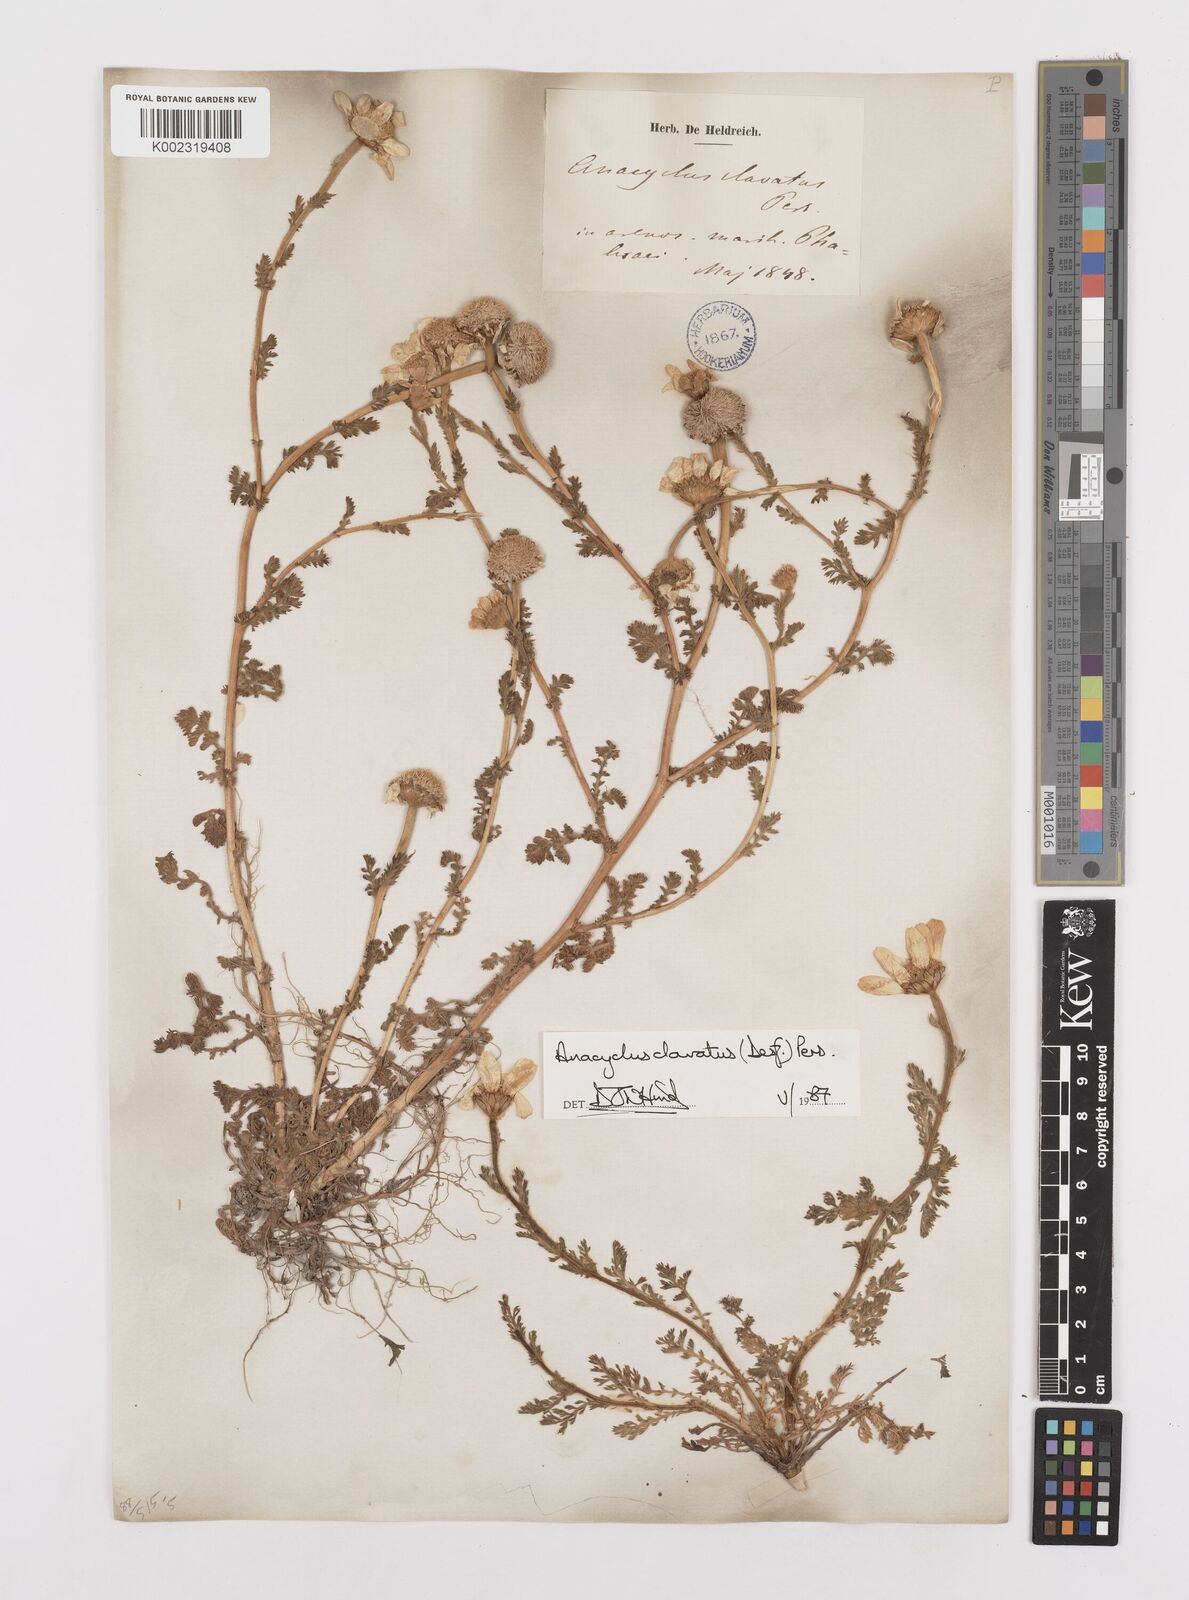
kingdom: Plantae
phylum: Tracheophyta
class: Magnoliopsida
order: Asterales
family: Asteraceae
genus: Anacyclus
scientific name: Anacyclus clavatus
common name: Whitebuttons
